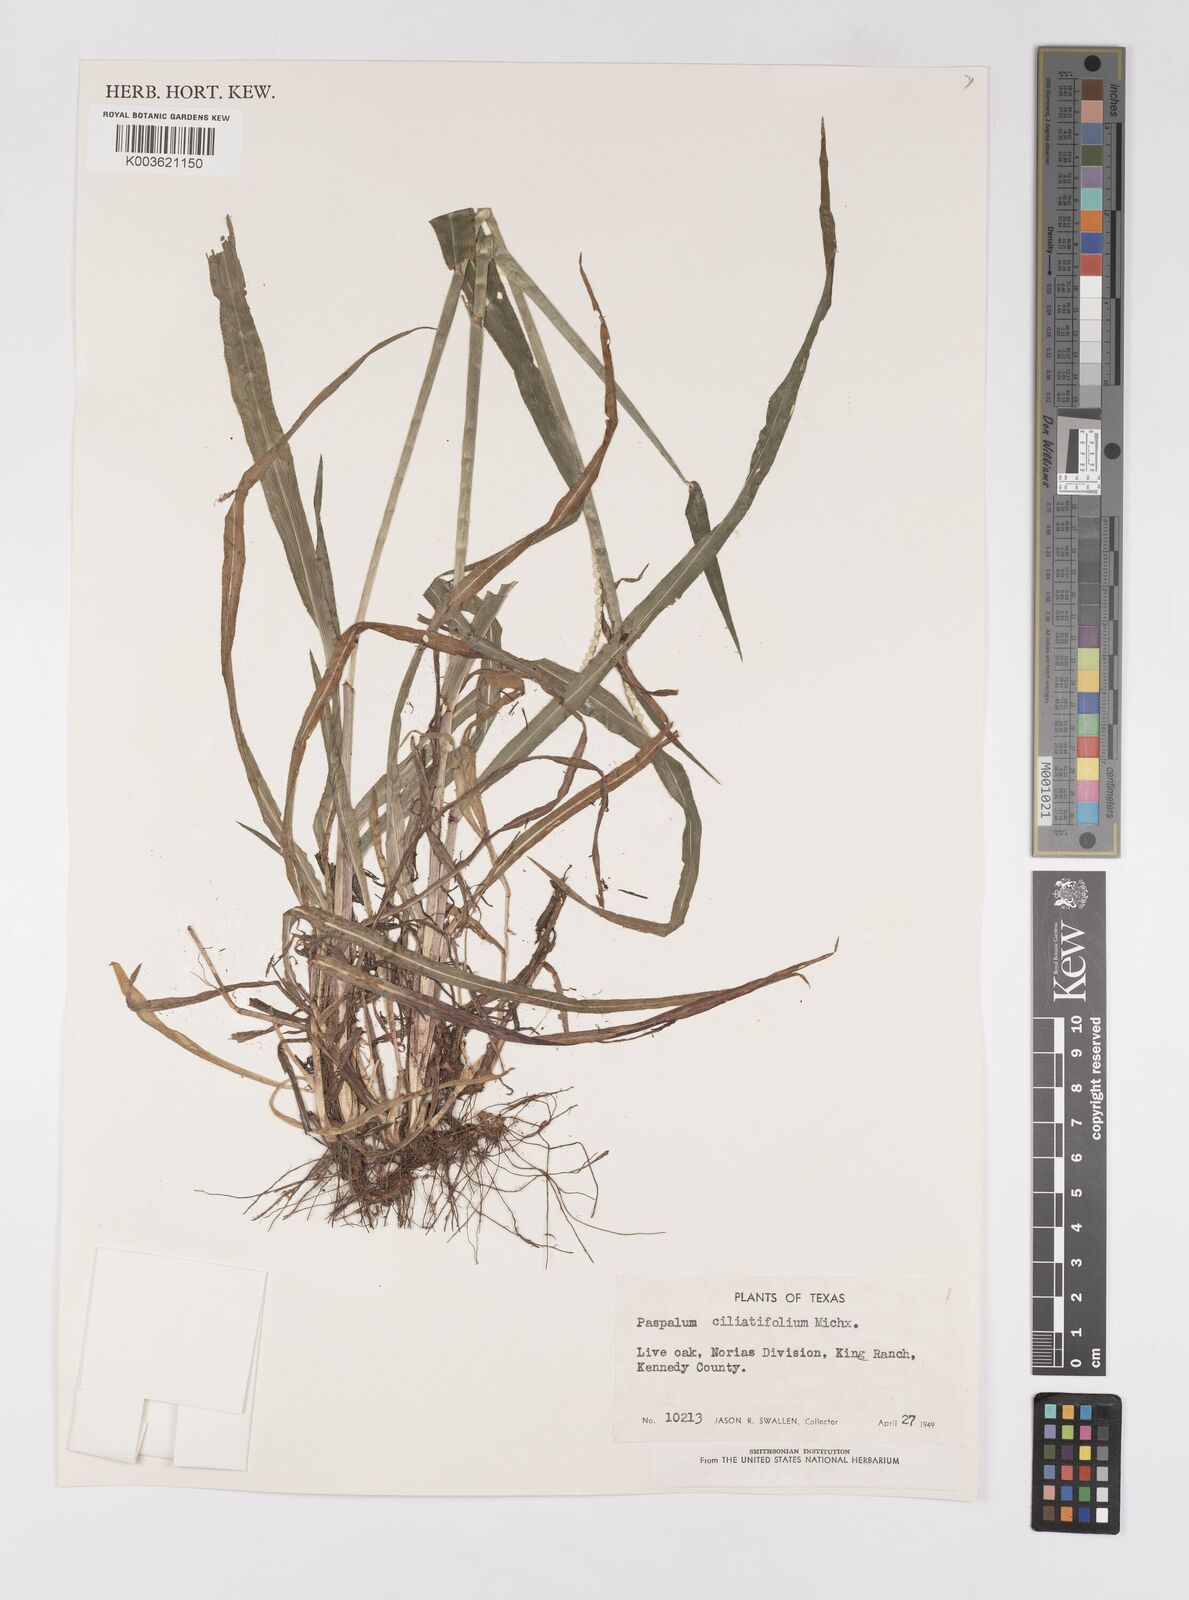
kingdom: Plantae
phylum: Tracheophyta
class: Liliopsida
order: Poales
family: Poaceae
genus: Paspalum
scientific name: Paspalum setaceum
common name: Slender paspalum
